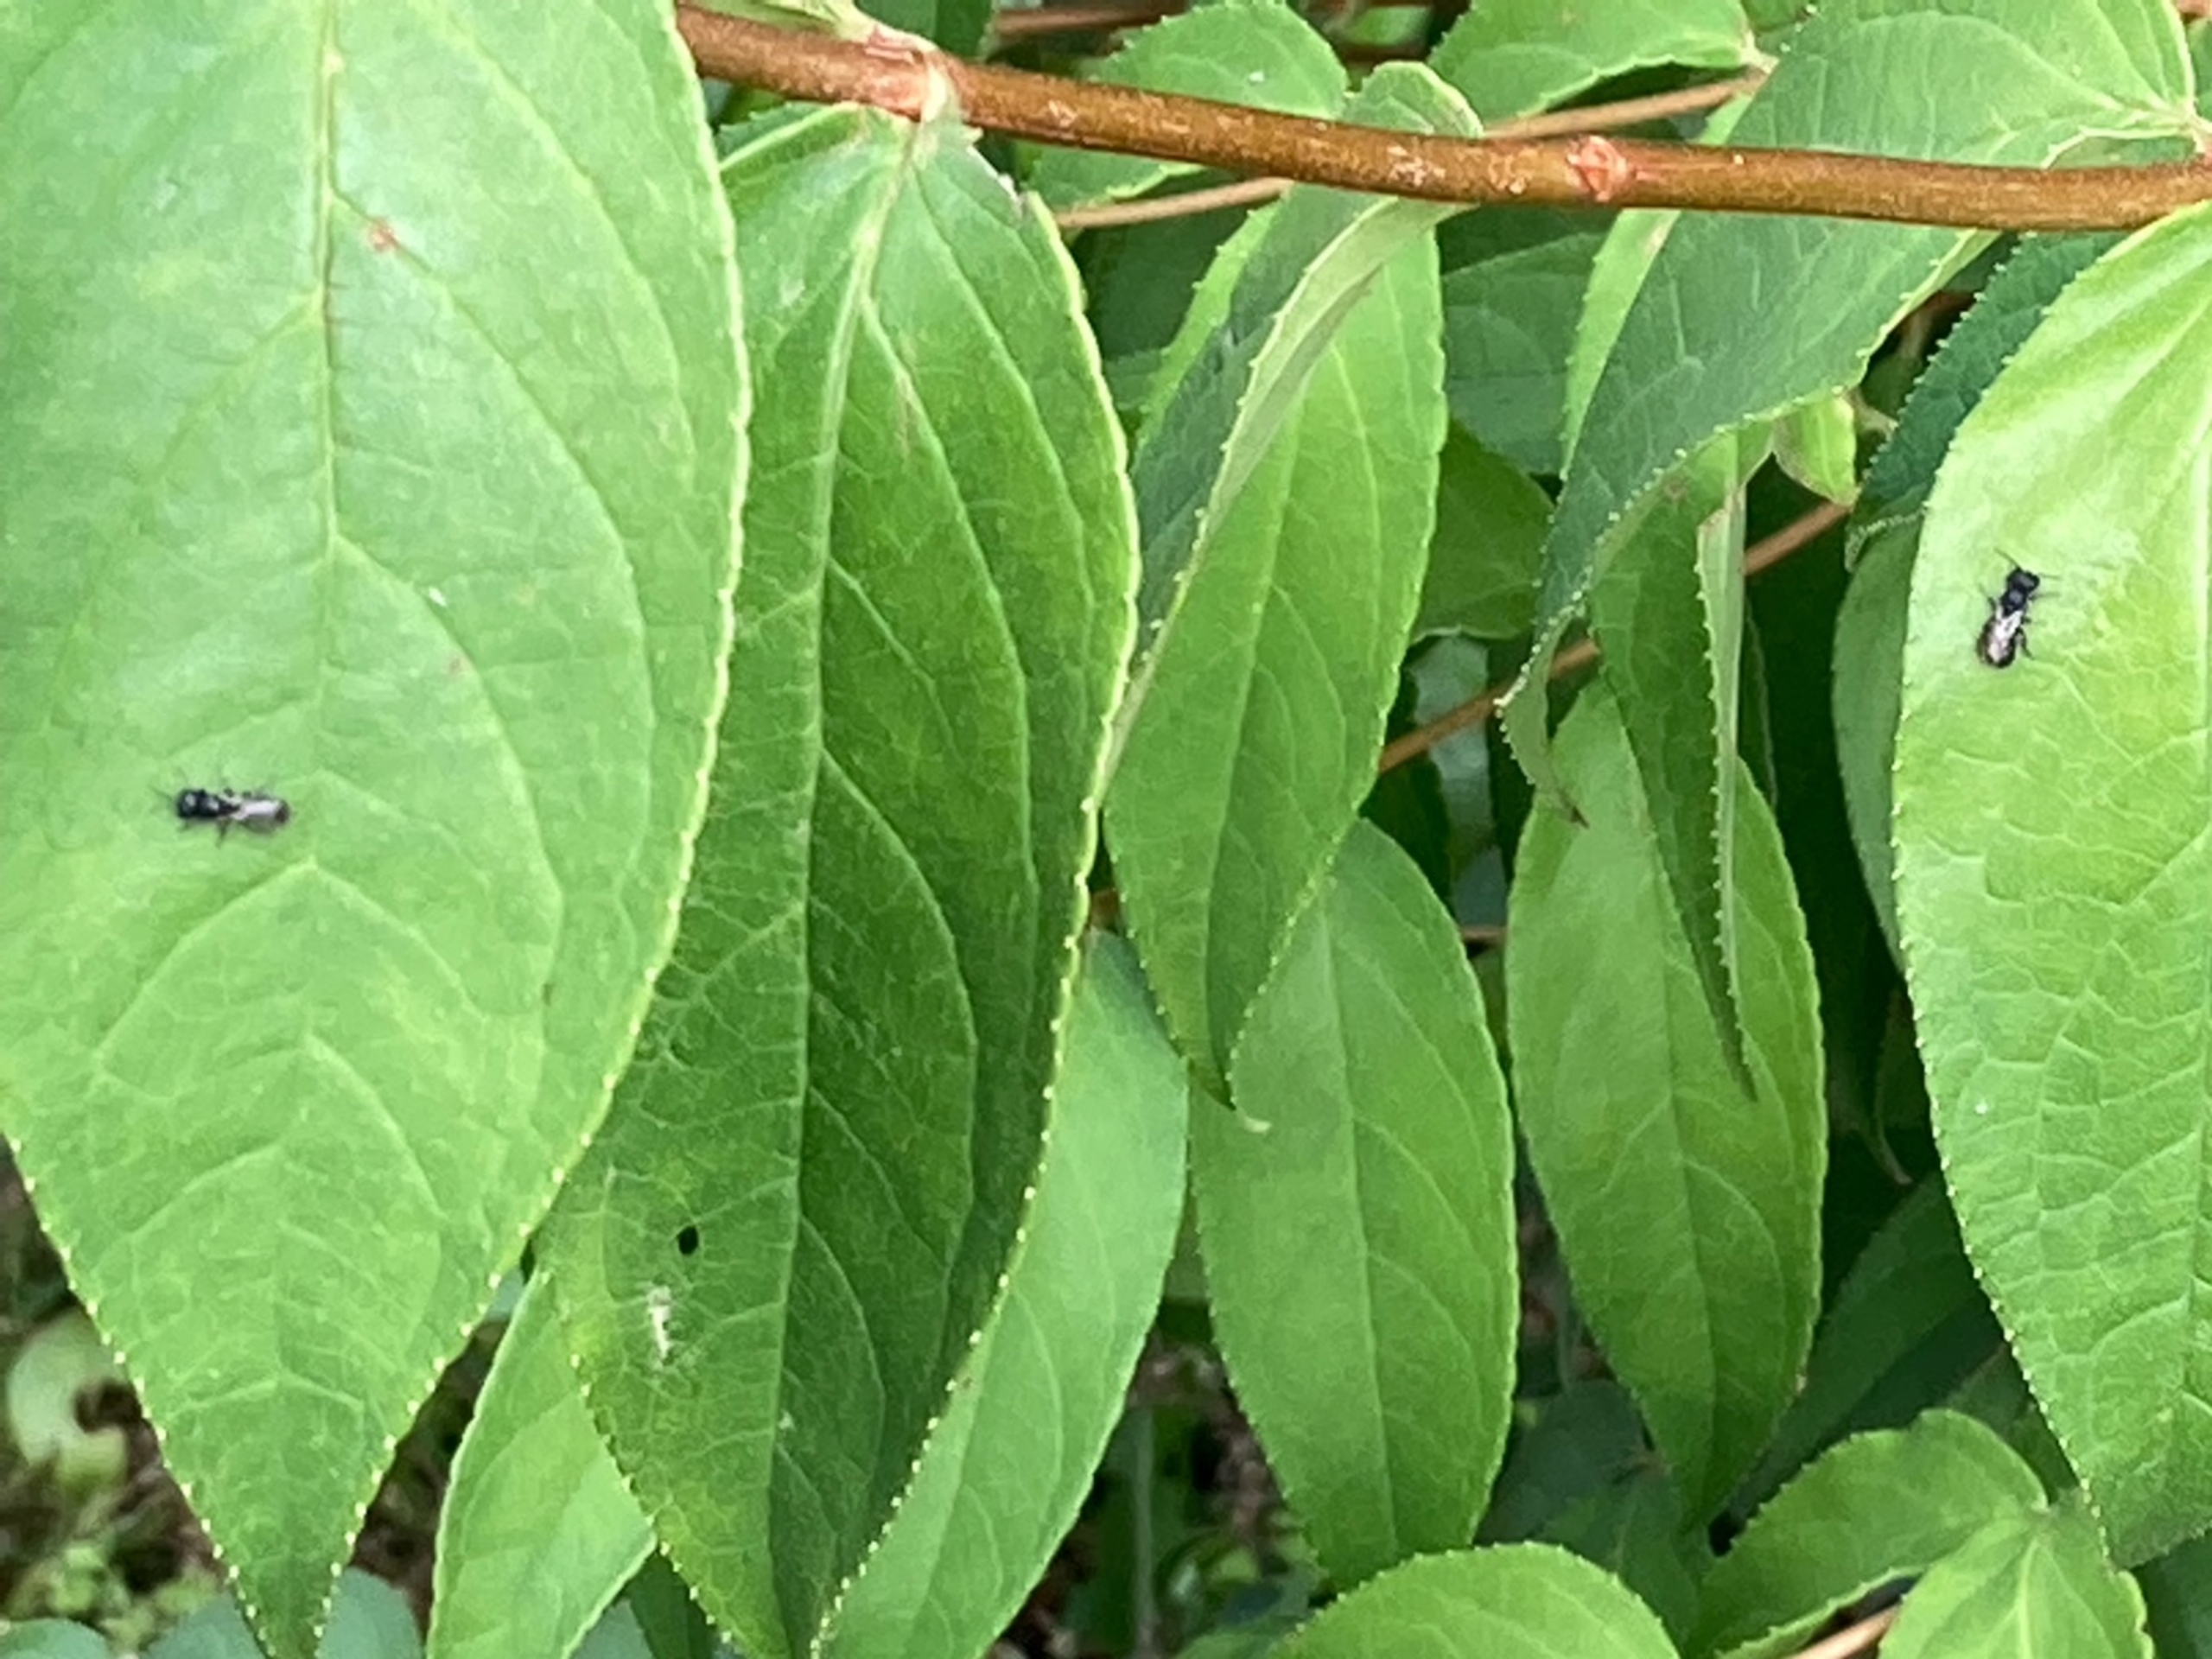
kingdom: Animalia
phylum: Arthropoda
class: Insecta
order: Hymenoptera
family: Crabronidae
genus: Crossocerus
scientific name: Crossocerus
